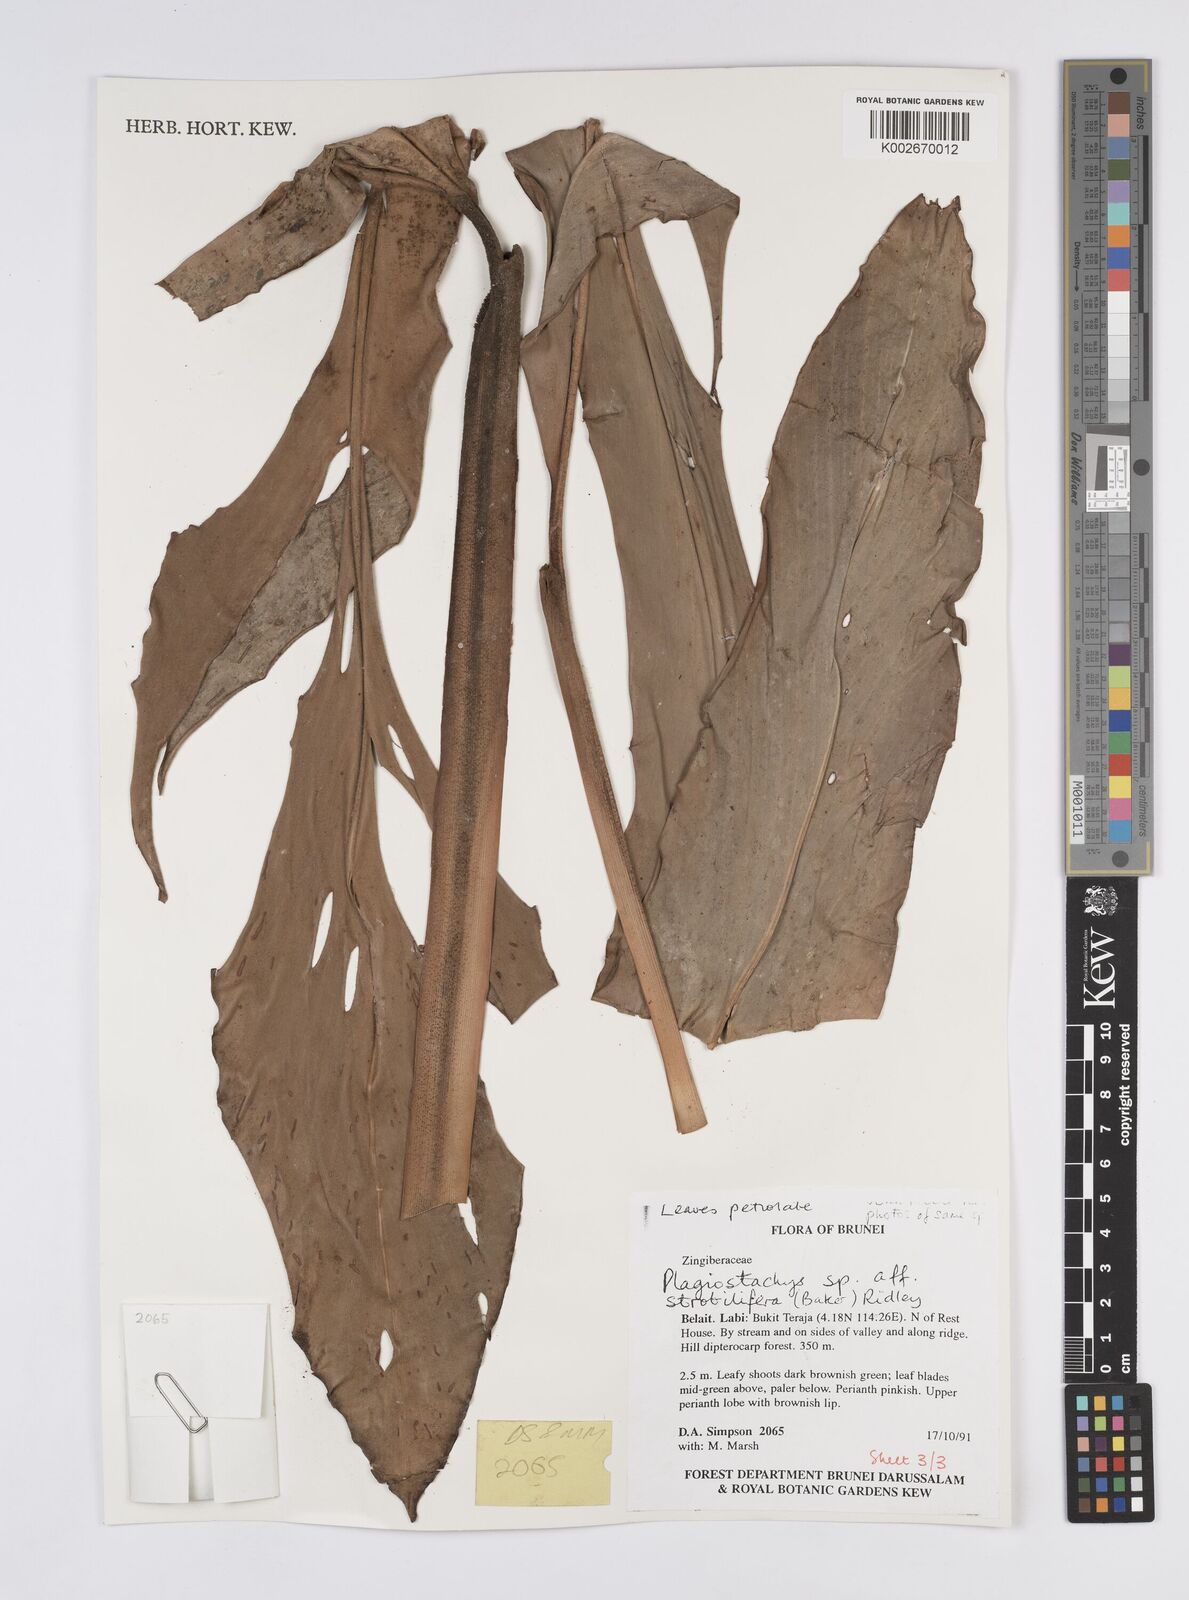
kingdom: Plantae
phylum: Tracheophyta
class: Liliopsida
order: Zingiberales
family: Zingiberaceae
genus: Plagiostachys
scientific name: Plagiostachys strobilifera
